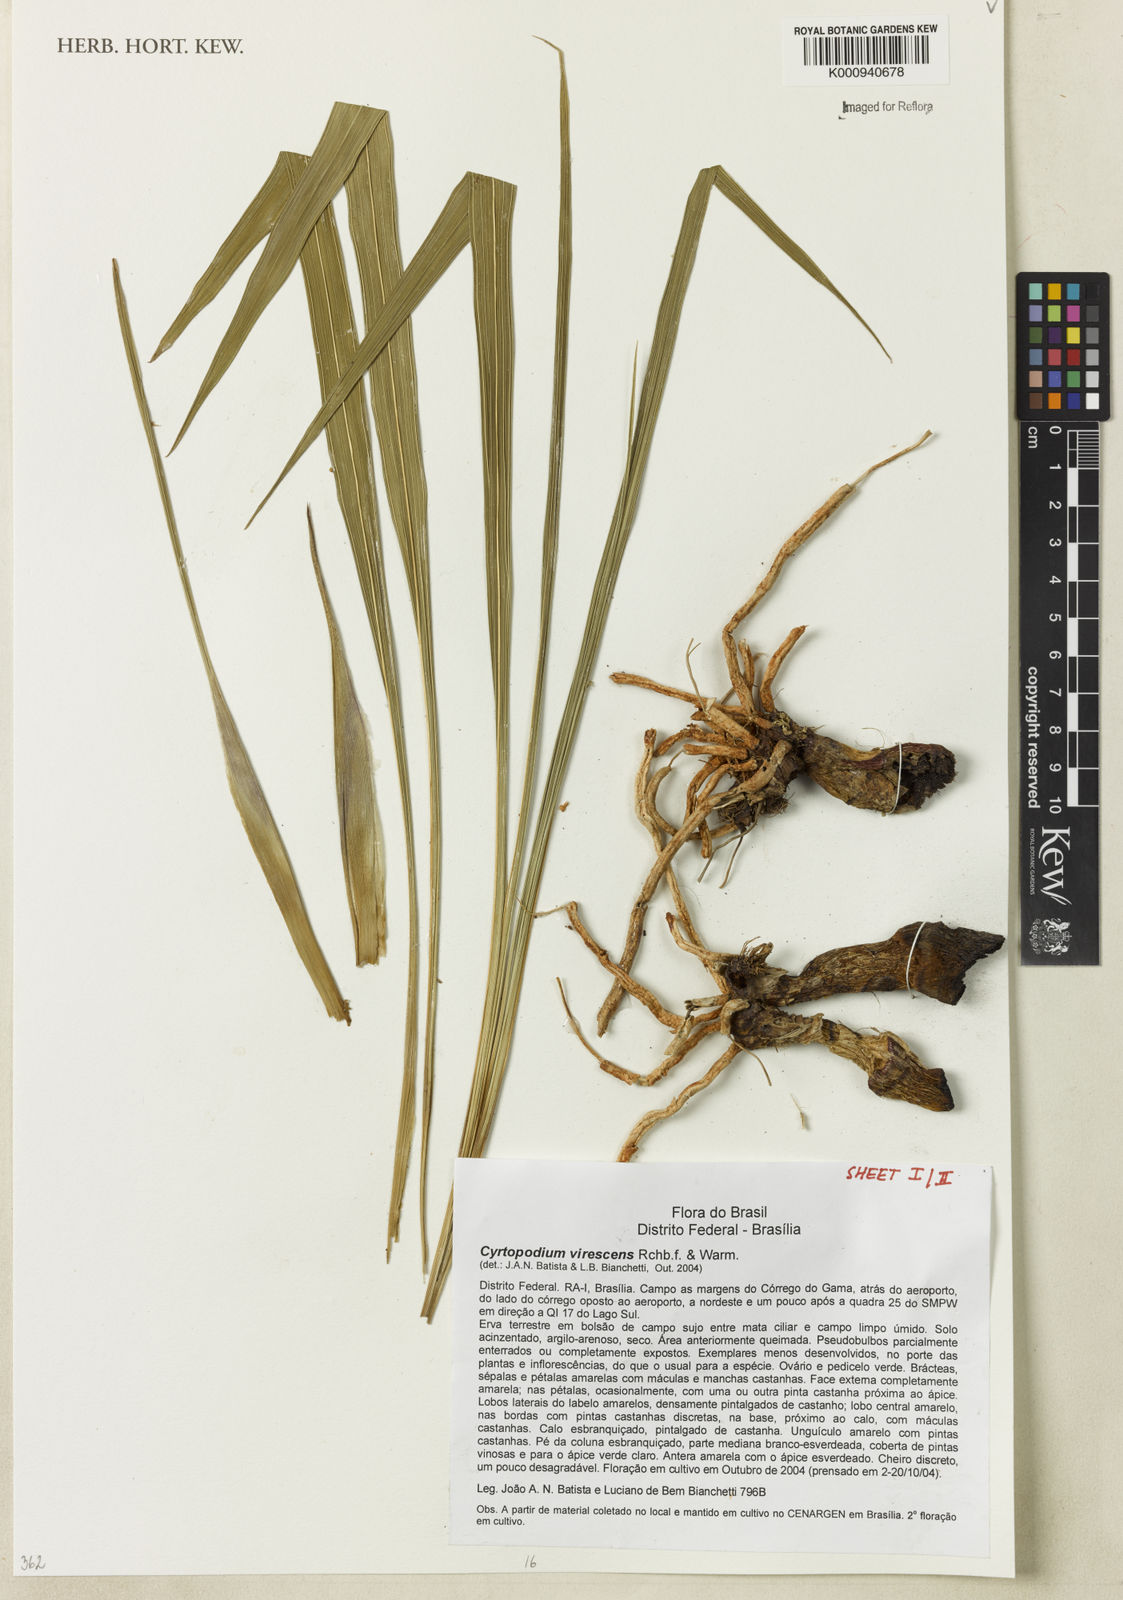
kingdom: Plantae
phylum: Tracheophyta
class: Liliopsida
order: Asparagales
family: Orchidaceae
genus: Cyrtopodium
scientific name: Cyrtopodium virescens
